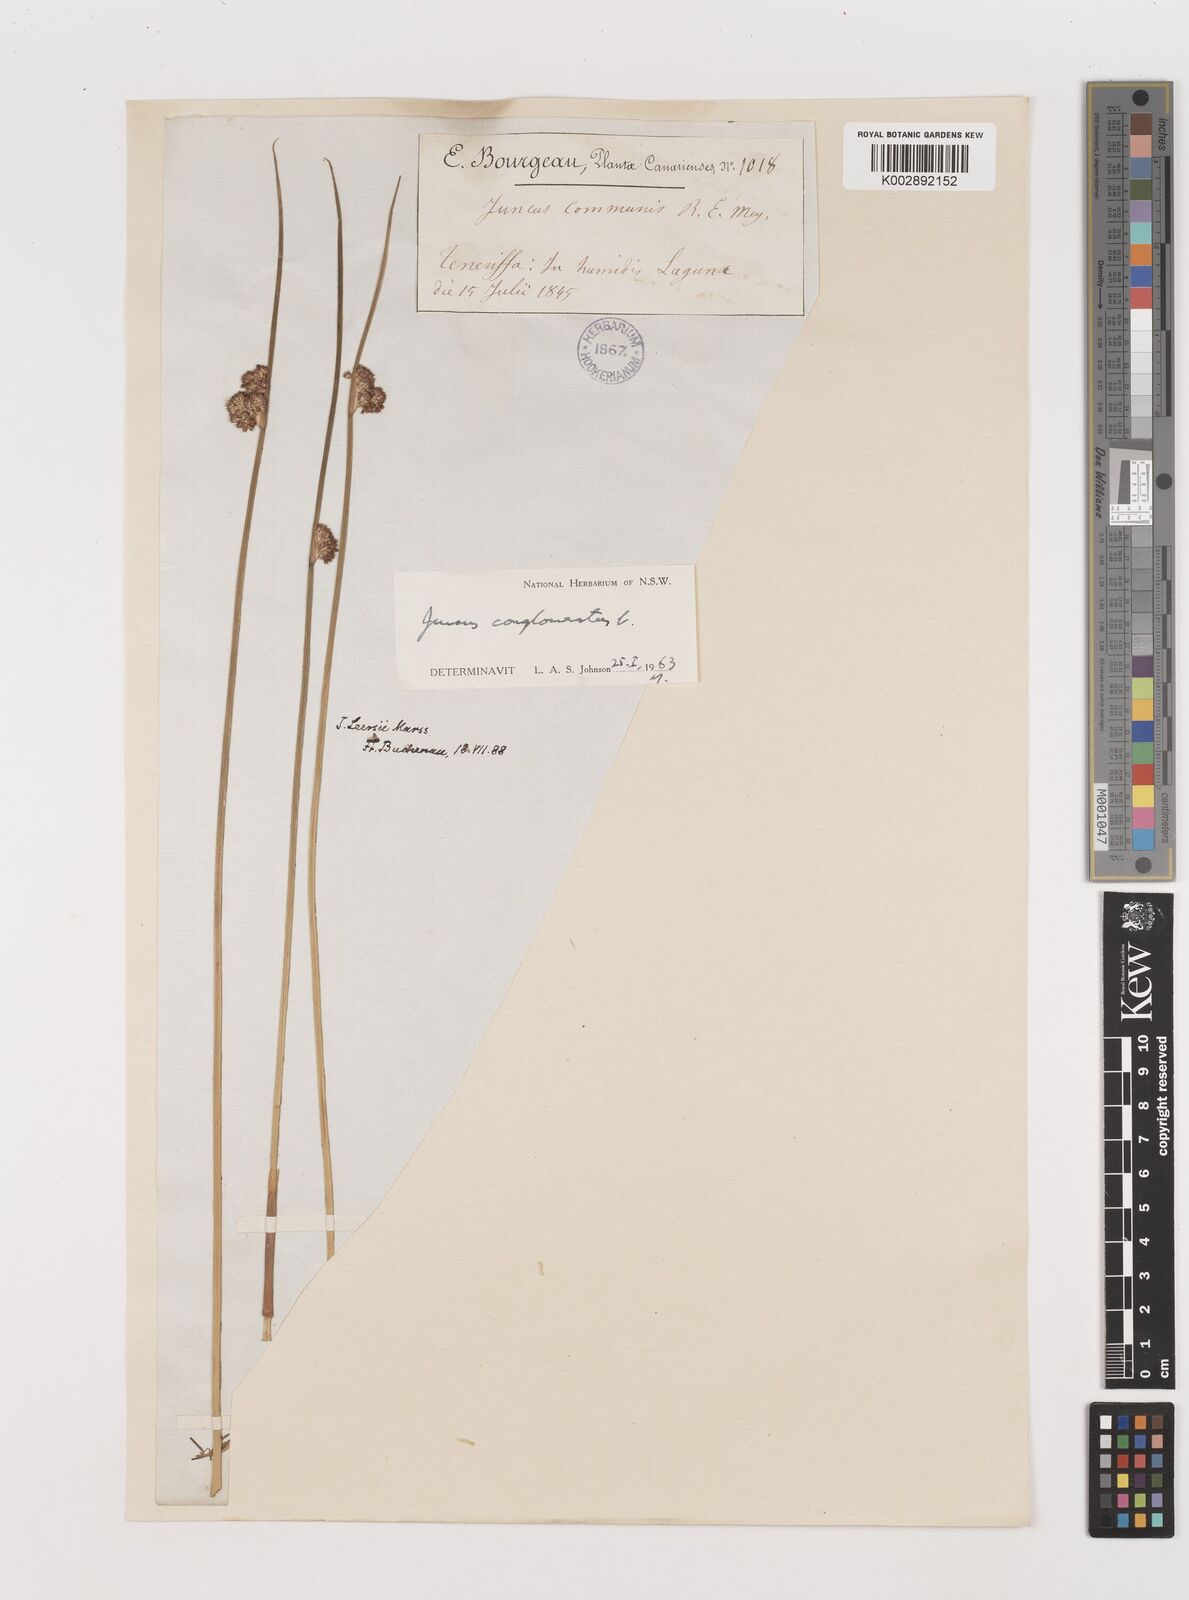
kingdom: Plantae
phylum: Tracheophyta
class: Liliopsida
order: Poales
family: Juncaceae
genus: Juncus
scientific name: Juncus conglomeratus
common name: Compact rush
